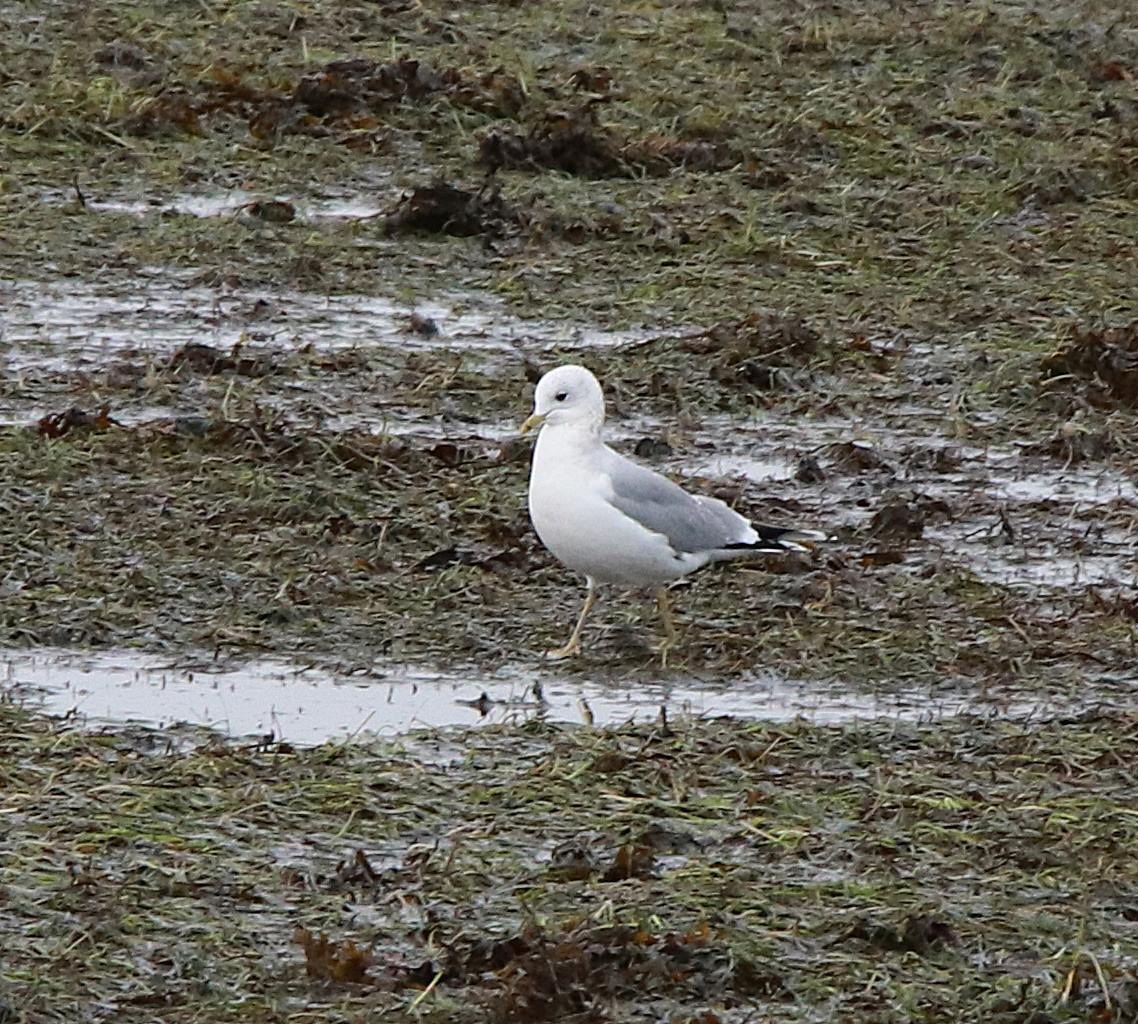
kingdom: Animalia
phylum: Chordata
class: Aves
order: Charadriiformes
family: Laridae
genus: Larus
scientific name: Larus canus
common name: Stormmåge
